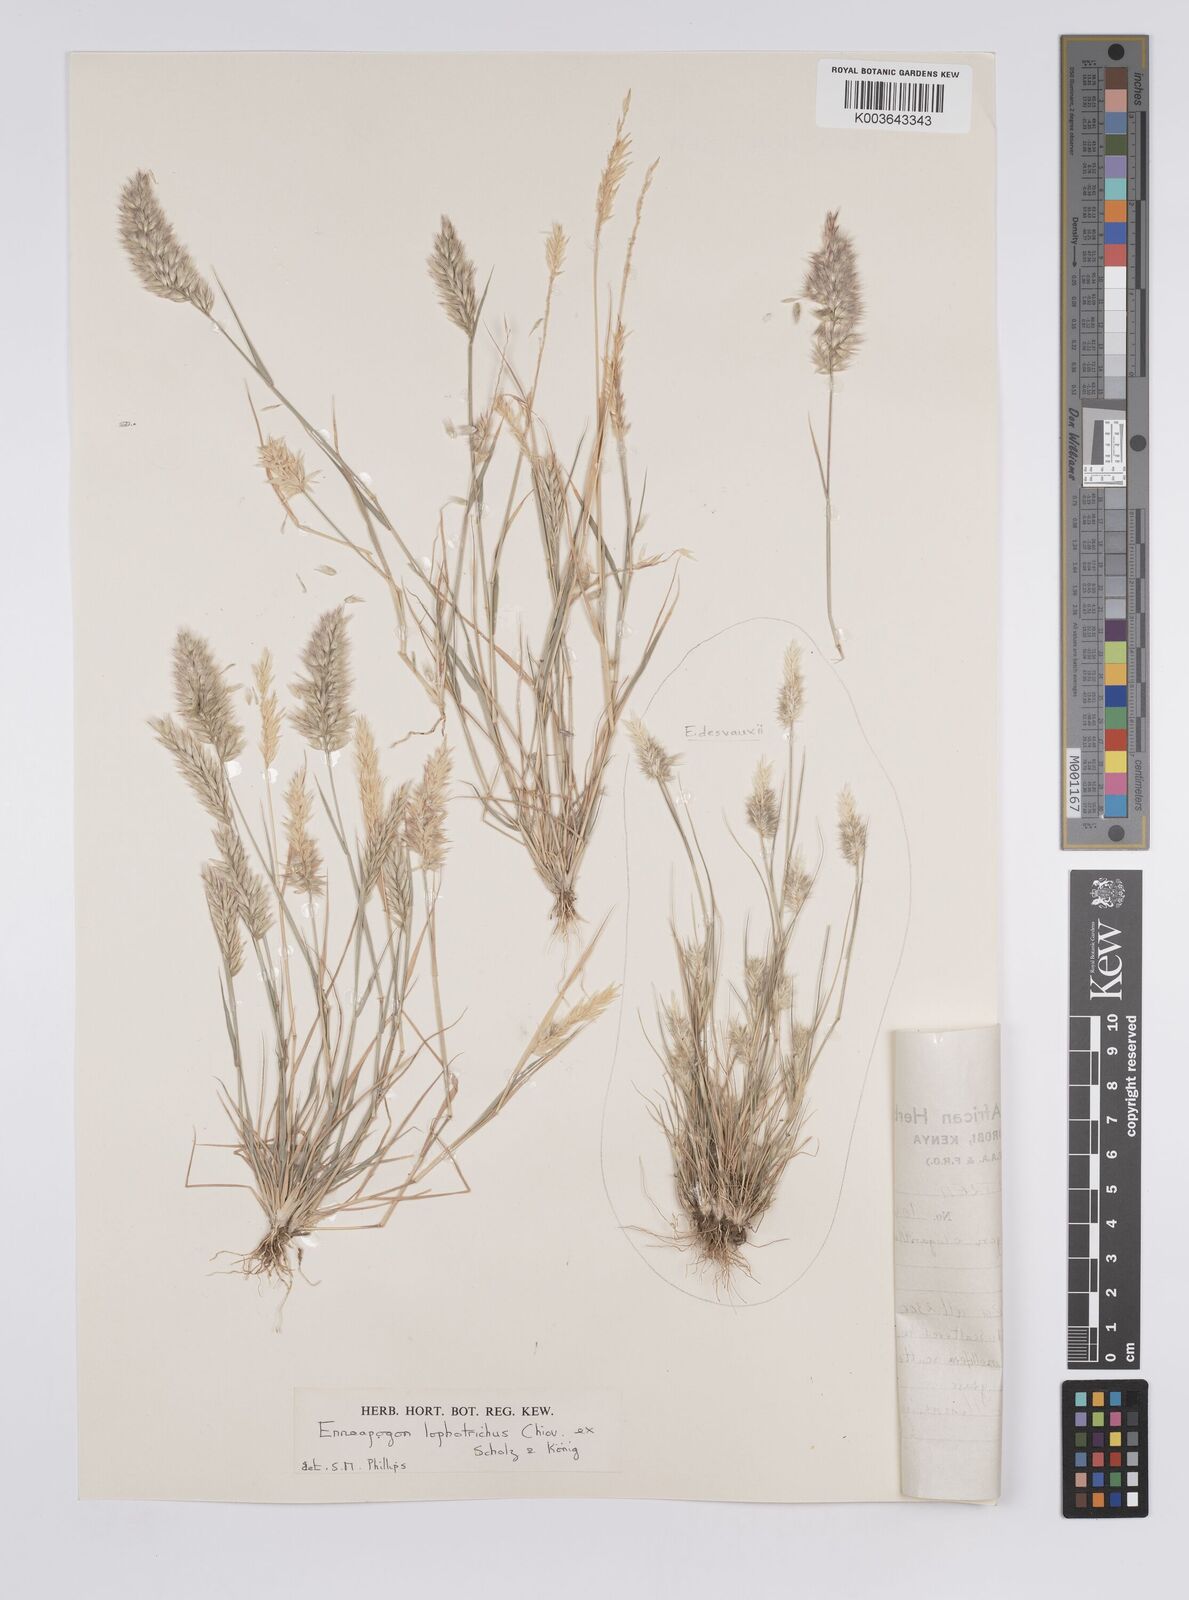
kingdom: Plantae
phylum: Tracheophyta
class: Liliopsida
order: Poales
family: Poaceae
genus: Enneapogon
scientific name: Enneapogon lophotrichus
